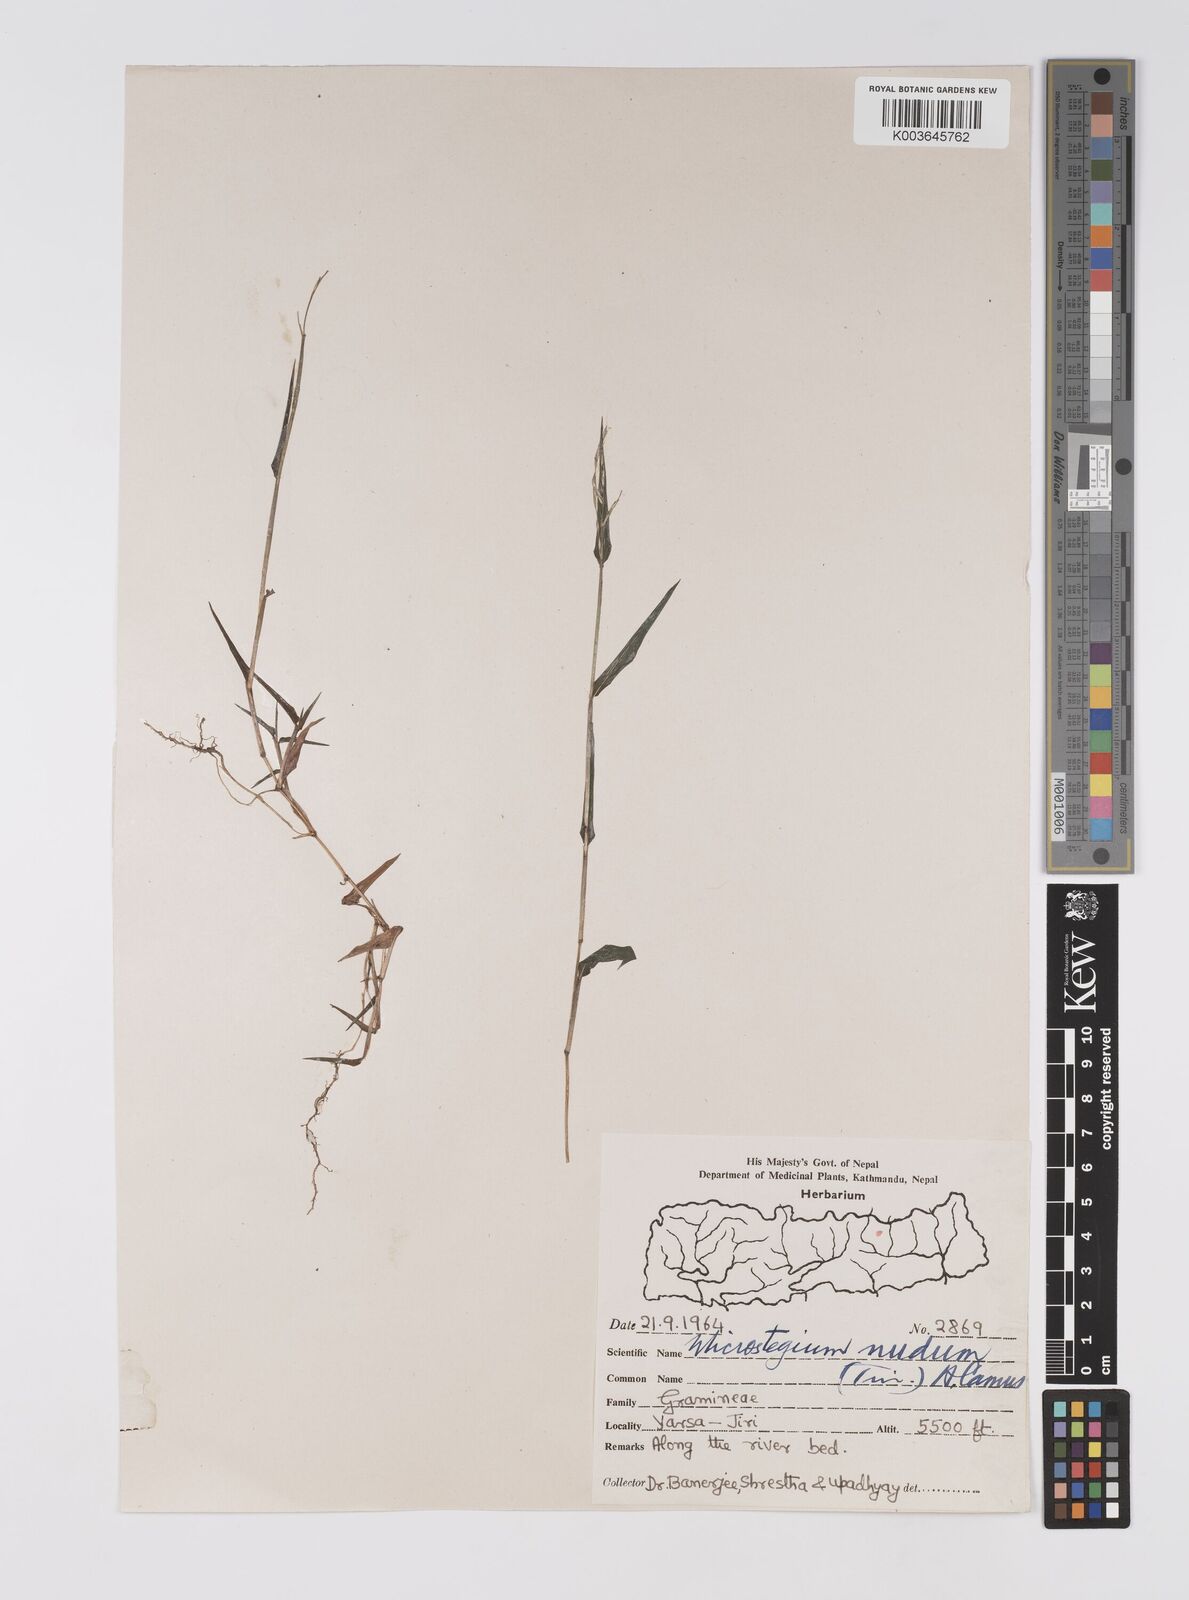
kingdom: Plantae
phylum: Tracheophyta
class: Liliopsida
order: Poales
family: Poaceae
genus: Microstegium
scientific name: Microstegium nudum
